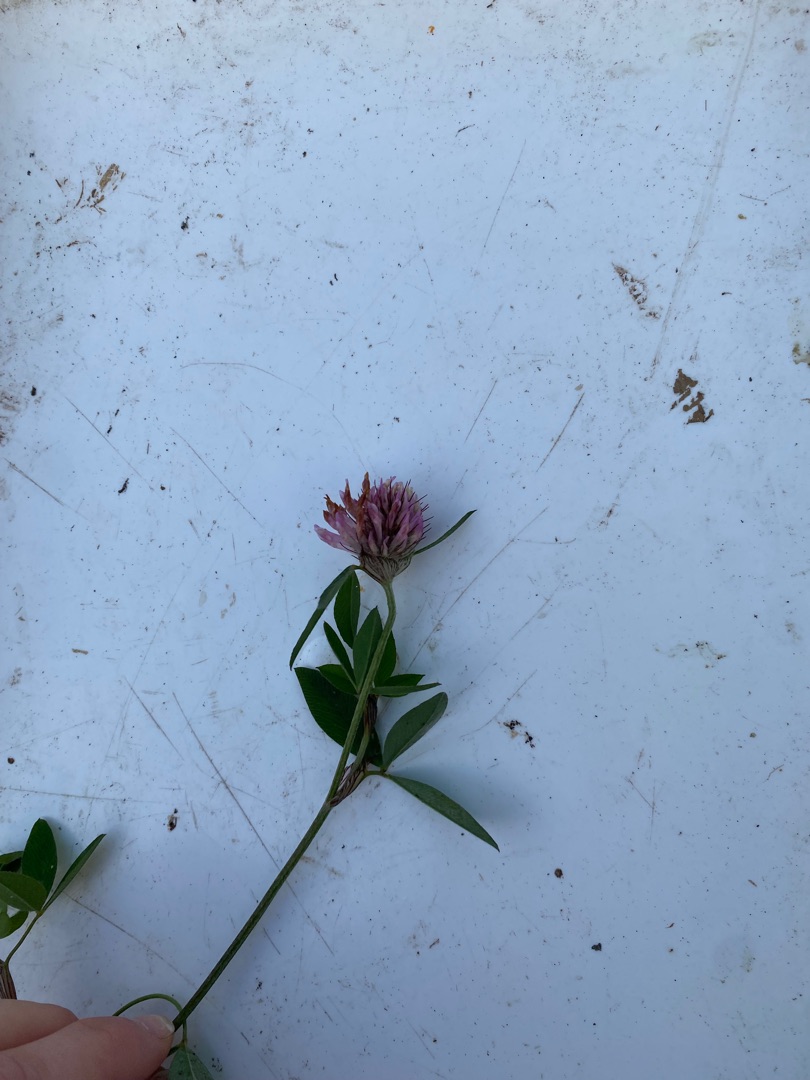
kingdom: Plantae
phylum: Tracheophyta
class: Magnoliopsida
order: Fabales
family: Fabaceae
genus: Trifolium
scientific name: Trifolium pratense
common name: Rød-kløver
